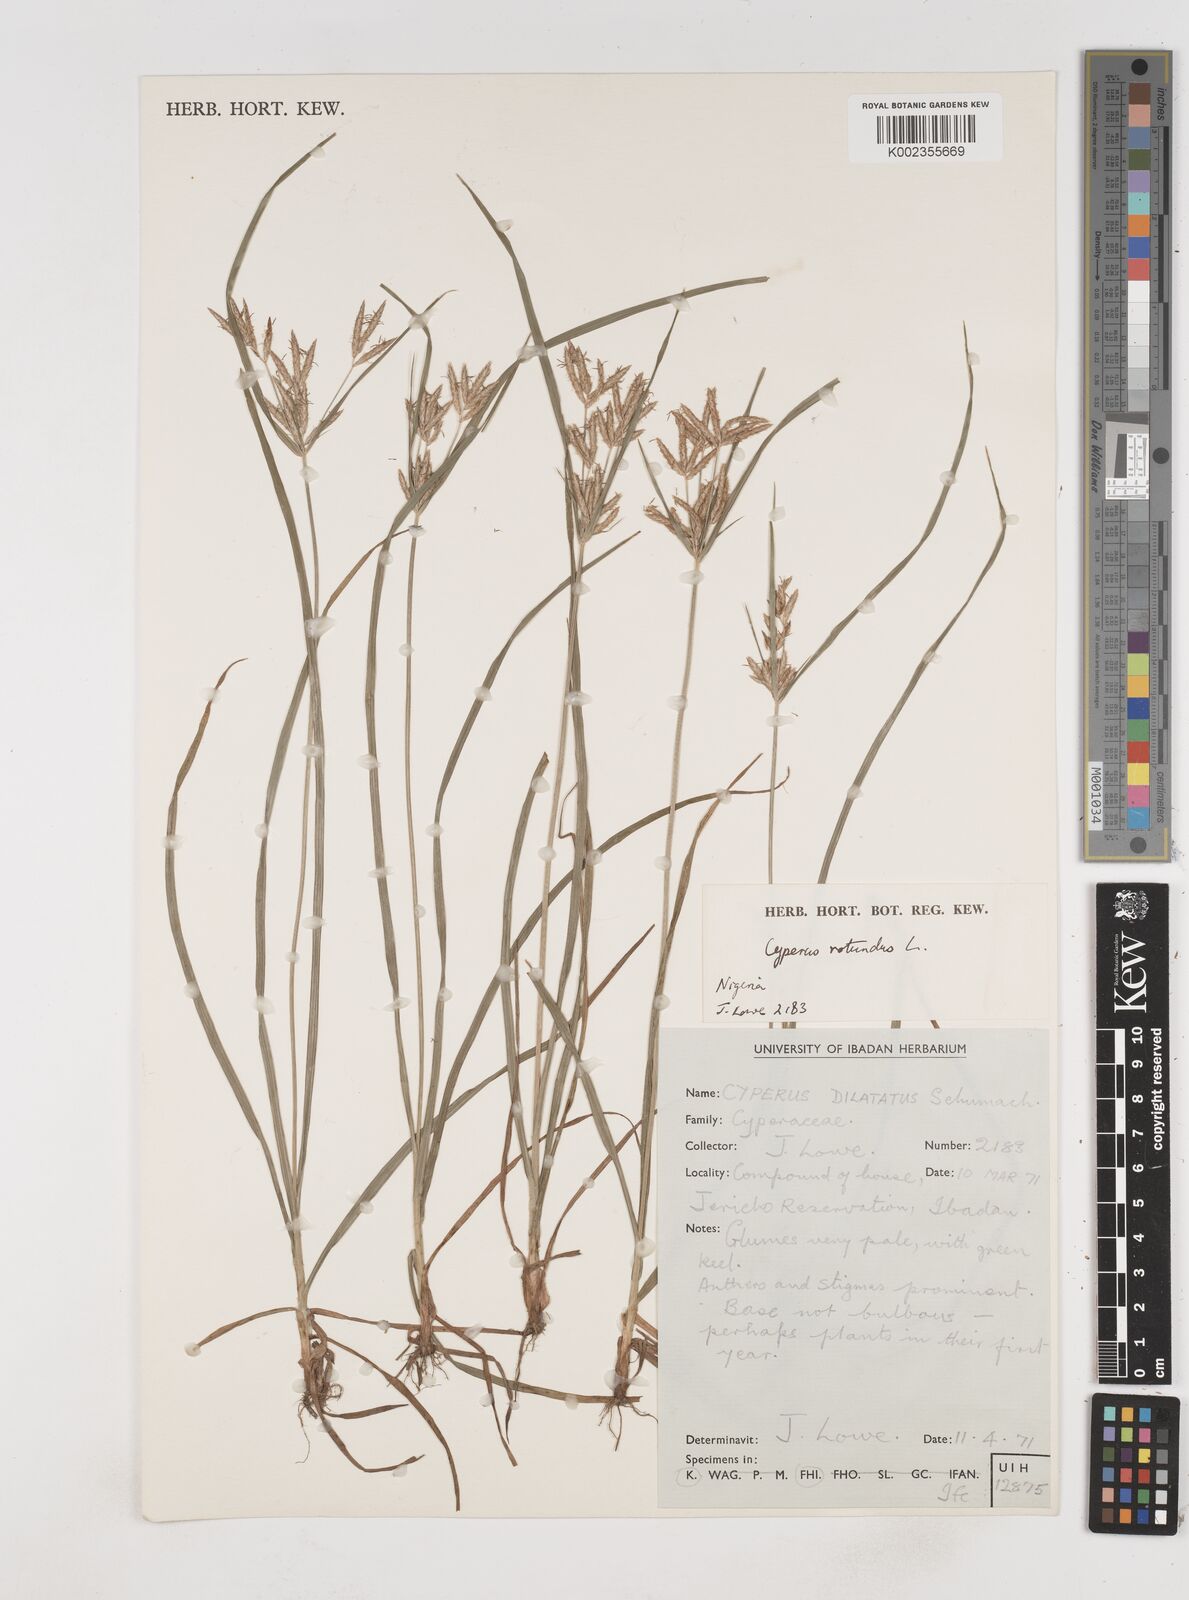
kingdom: Plantae
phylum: Tracheophyta
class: Liliopsida
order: Poales
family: Cyperaceae
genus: Cyperus
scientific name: Cyperus rotundus
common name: Nutgrass
